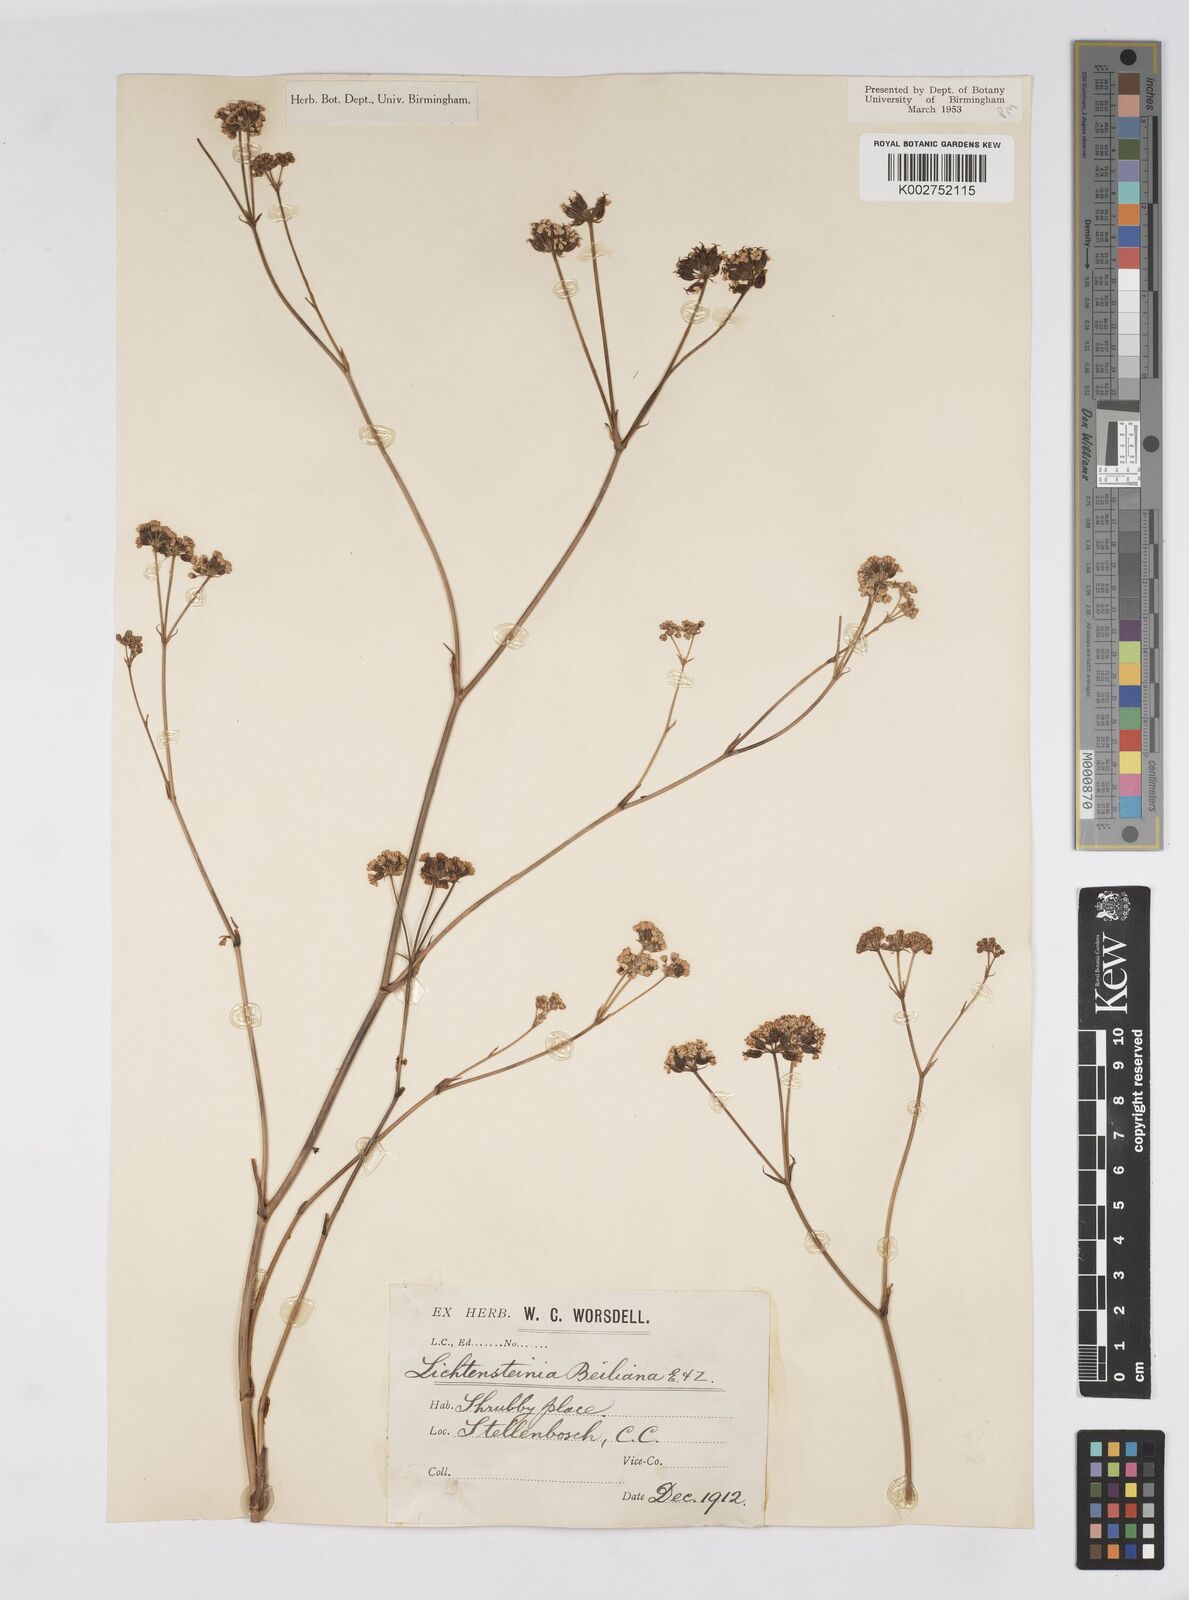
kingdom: Plantae
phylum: Tracheophyta
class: Magnoliopsida
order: Apiales
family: Apiaceae
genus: Lichtensteinia
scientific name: Lichtensteinia obscura
